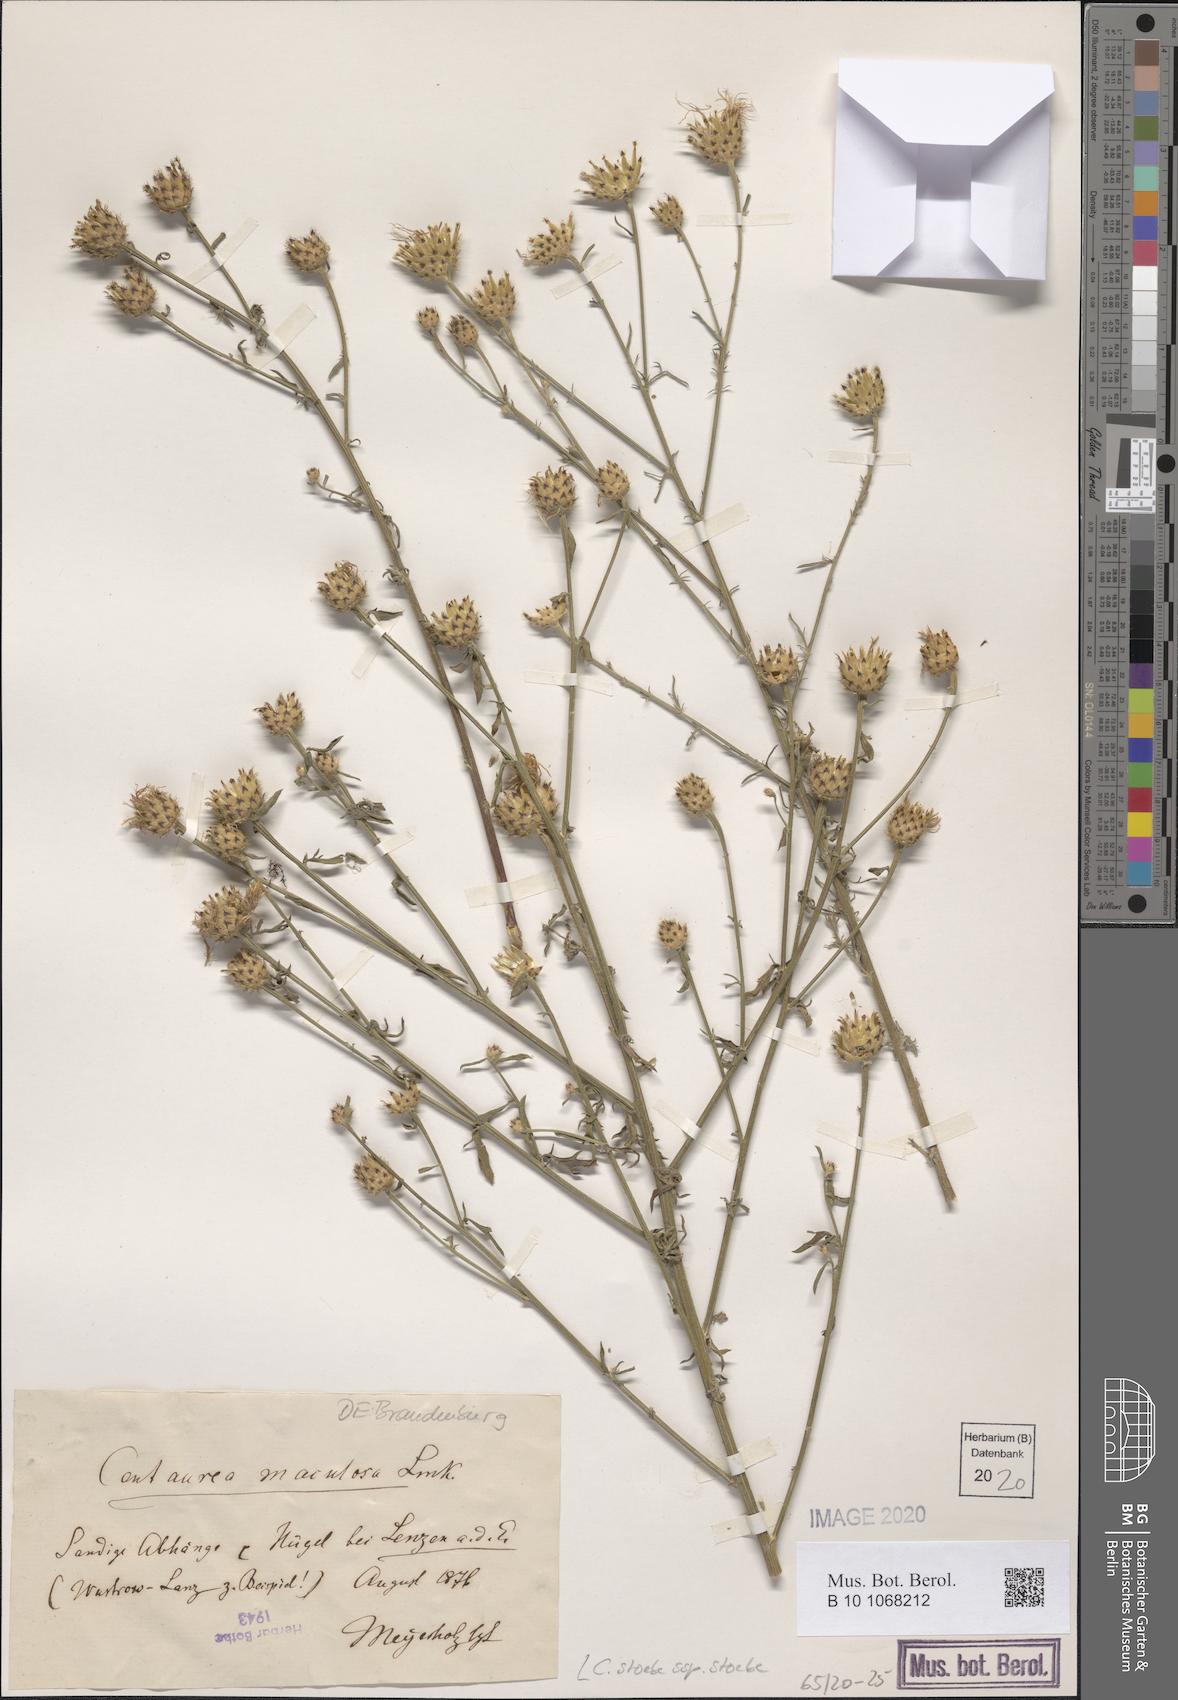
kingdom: Plantae
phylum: Tracheophyta
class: Magnoliopsida
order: Asterales
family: Asteraceae
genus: Centaurea
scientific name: Centaurea stoebe
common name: Spotted knapweed
